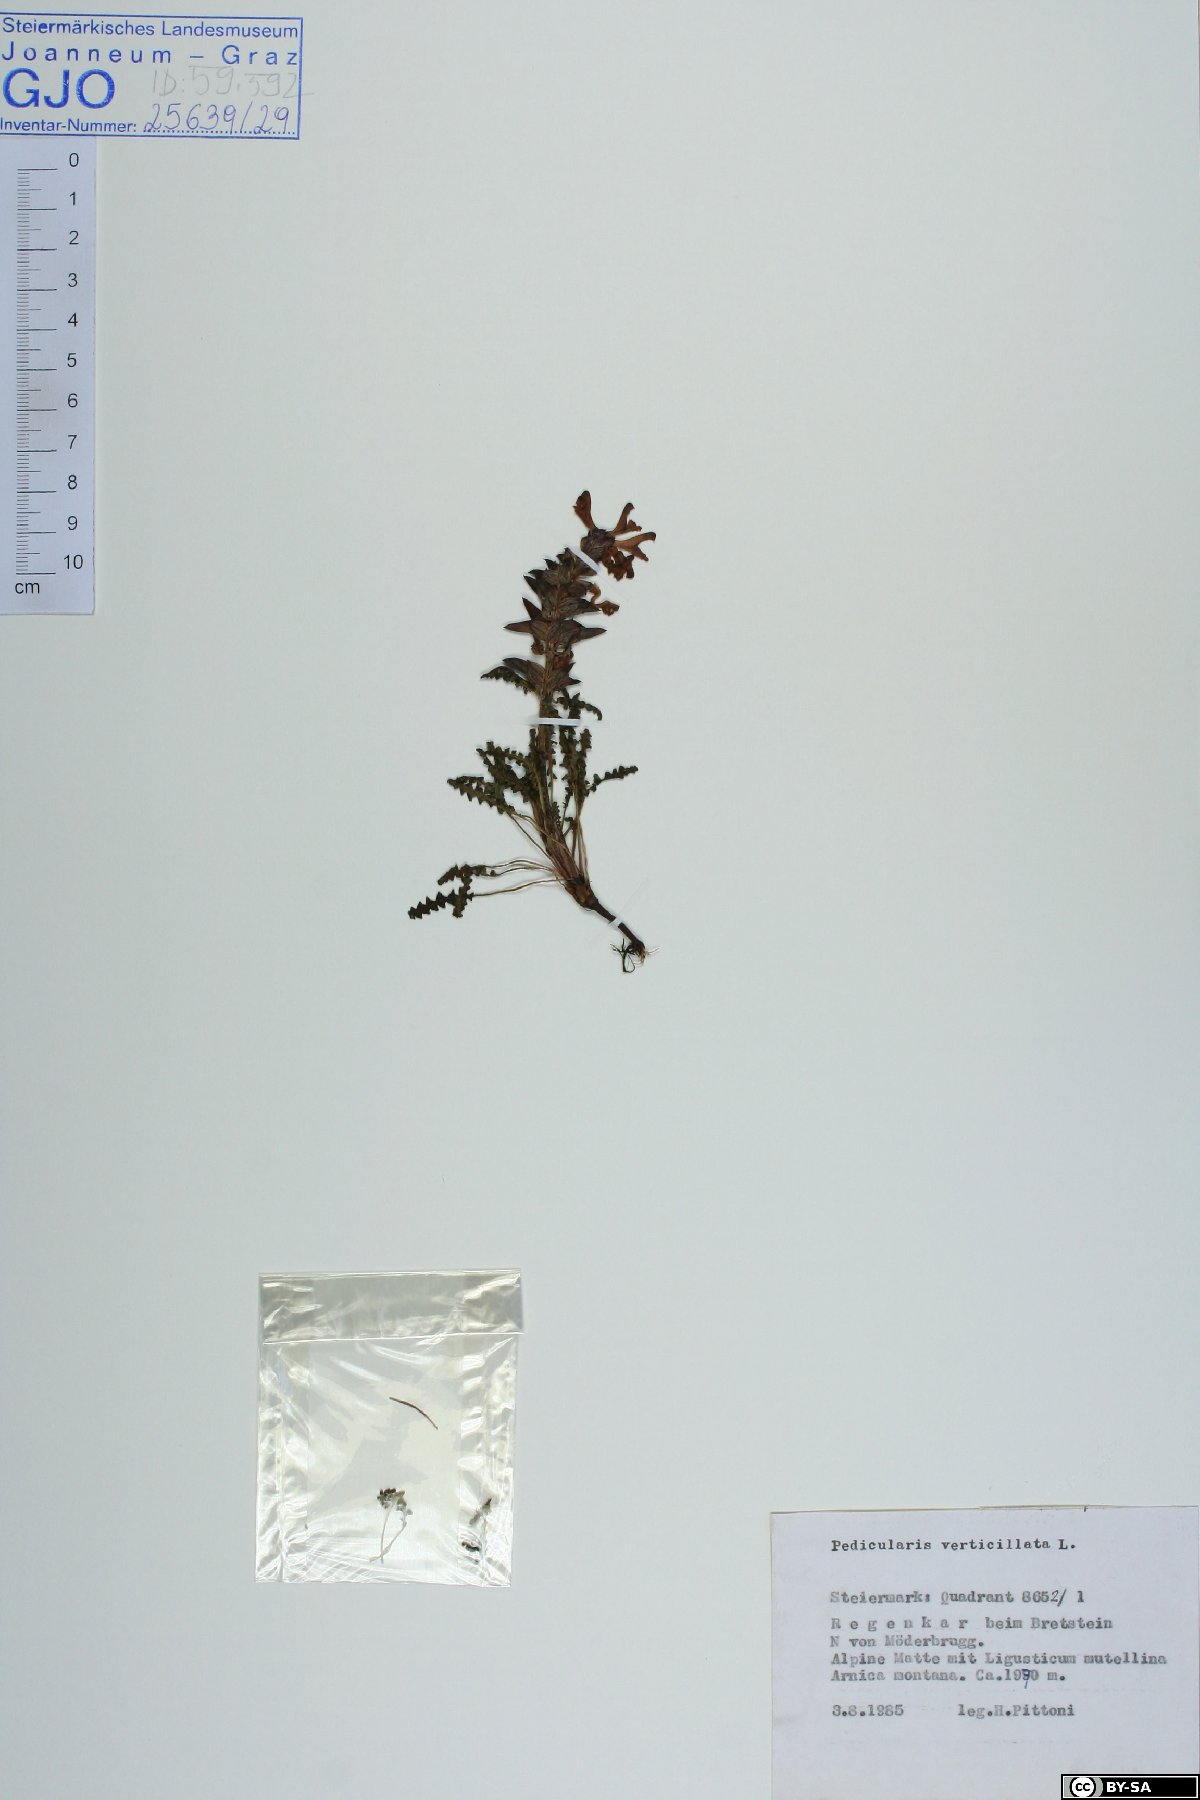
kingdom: Plantae
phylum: Tracheophyta
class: Magnoliopsida
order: Lamiales
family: Orobanchaceae
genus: Pedicularis
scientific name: Pedicularis verticillata
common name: Whorled lousewort
